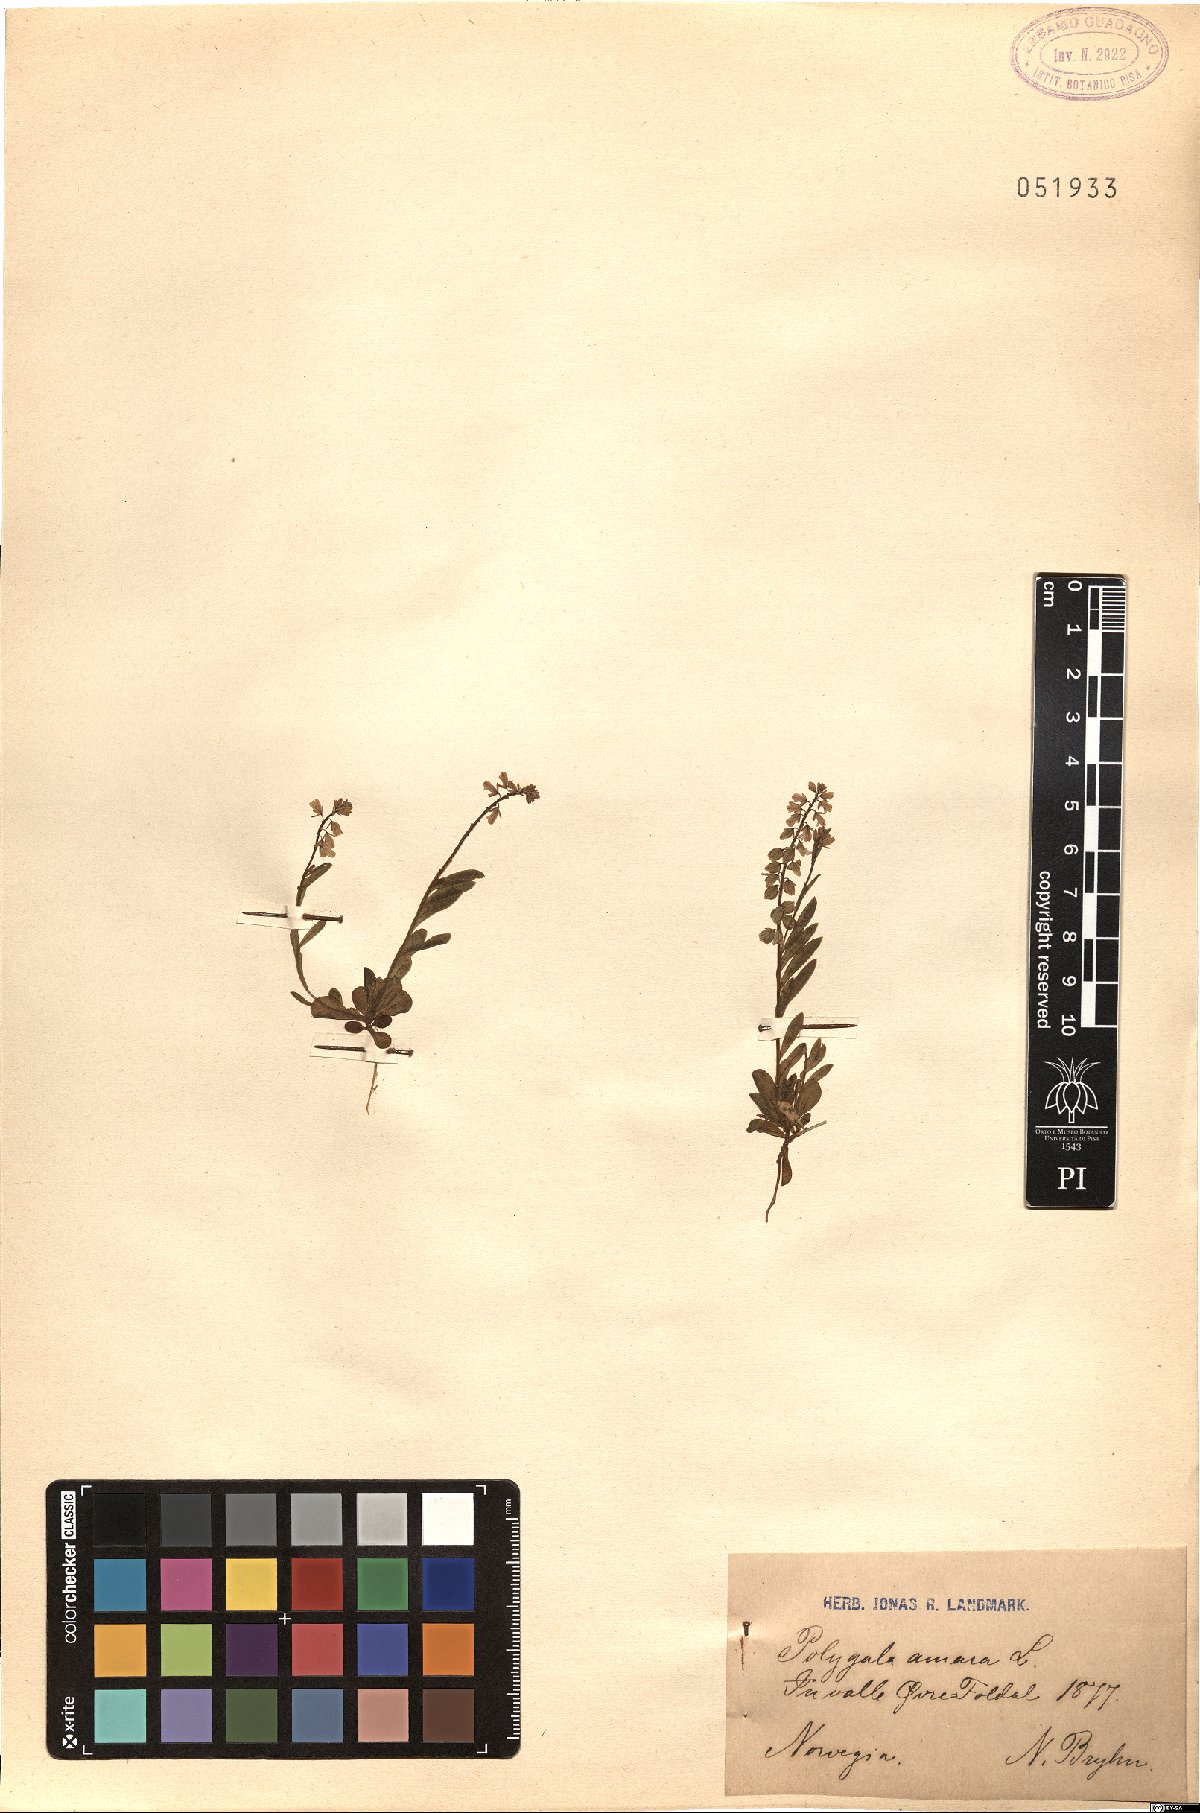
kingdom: Plantae
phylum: Tracheophyta
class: Magnoliopsida
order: Fabales
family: Polygalaceae
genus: Polygala
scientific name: Polygala amara
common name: Milkwort
